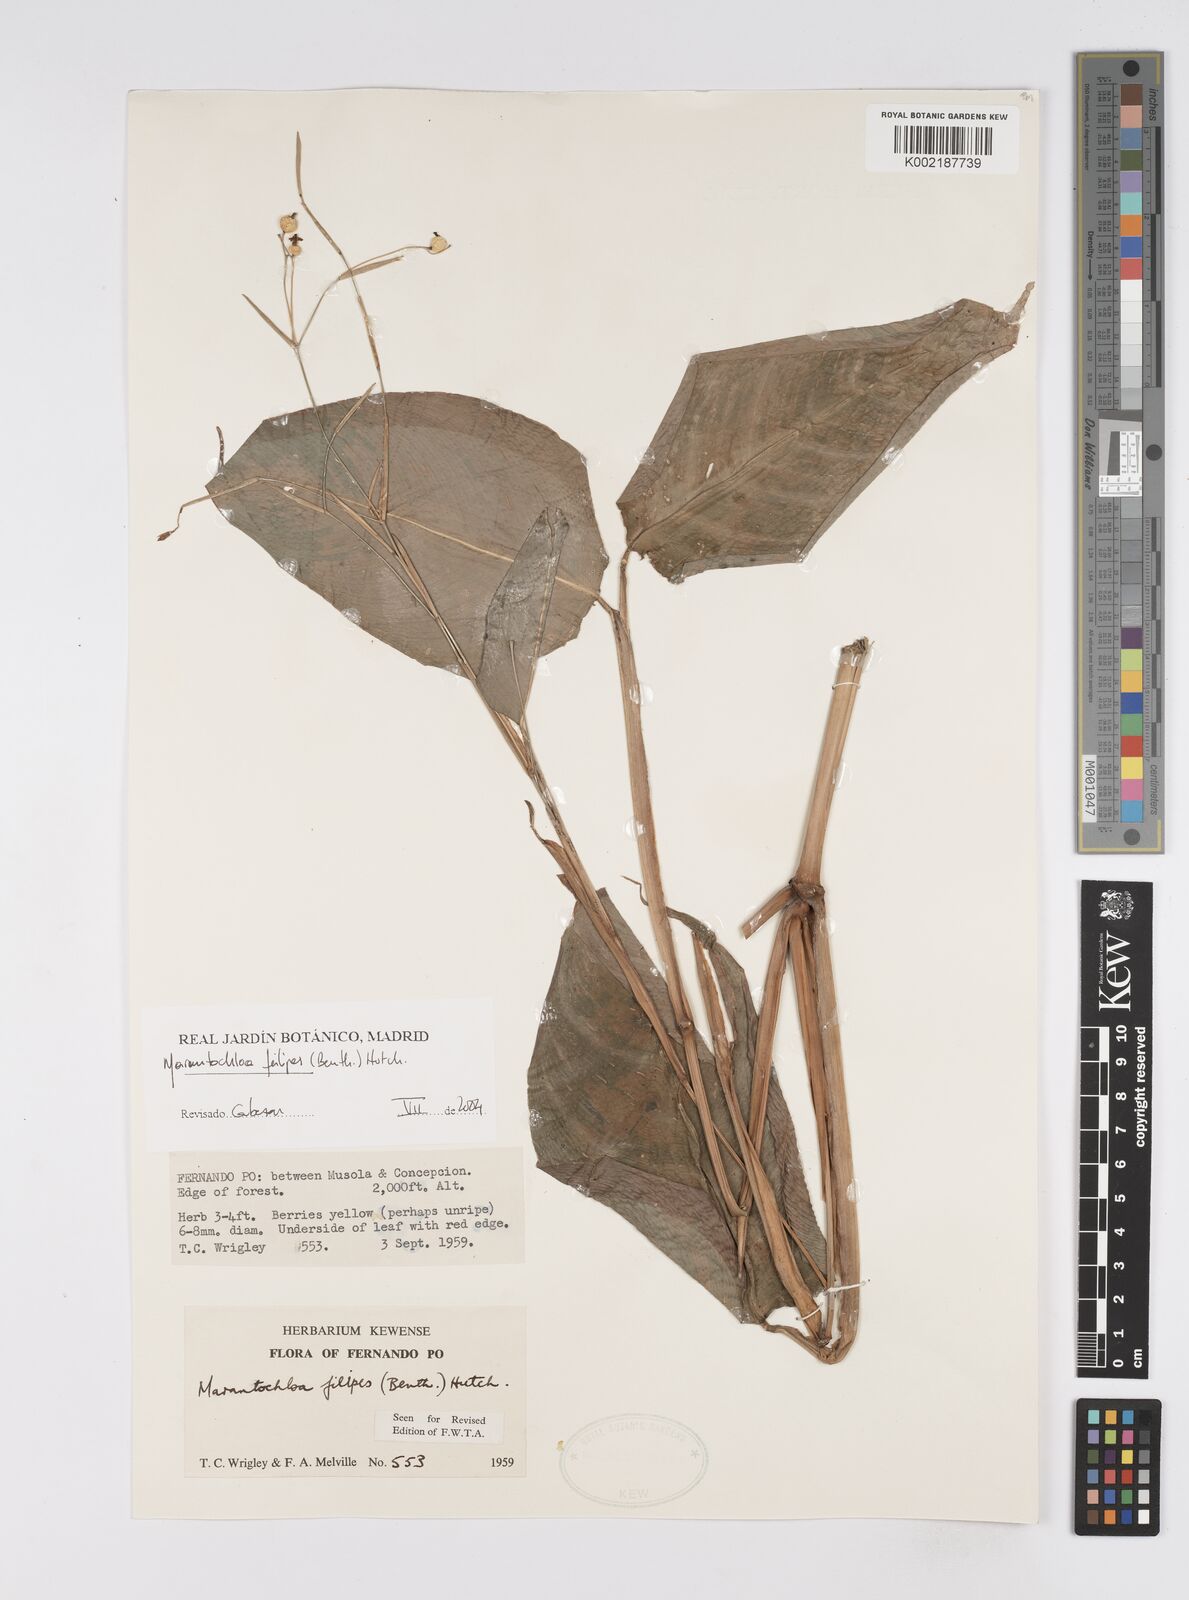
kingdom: Plantae
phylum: Tracheophyta
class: Liliopsida
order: Zingiberales
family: Marantaceae
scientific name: Marantaceae
